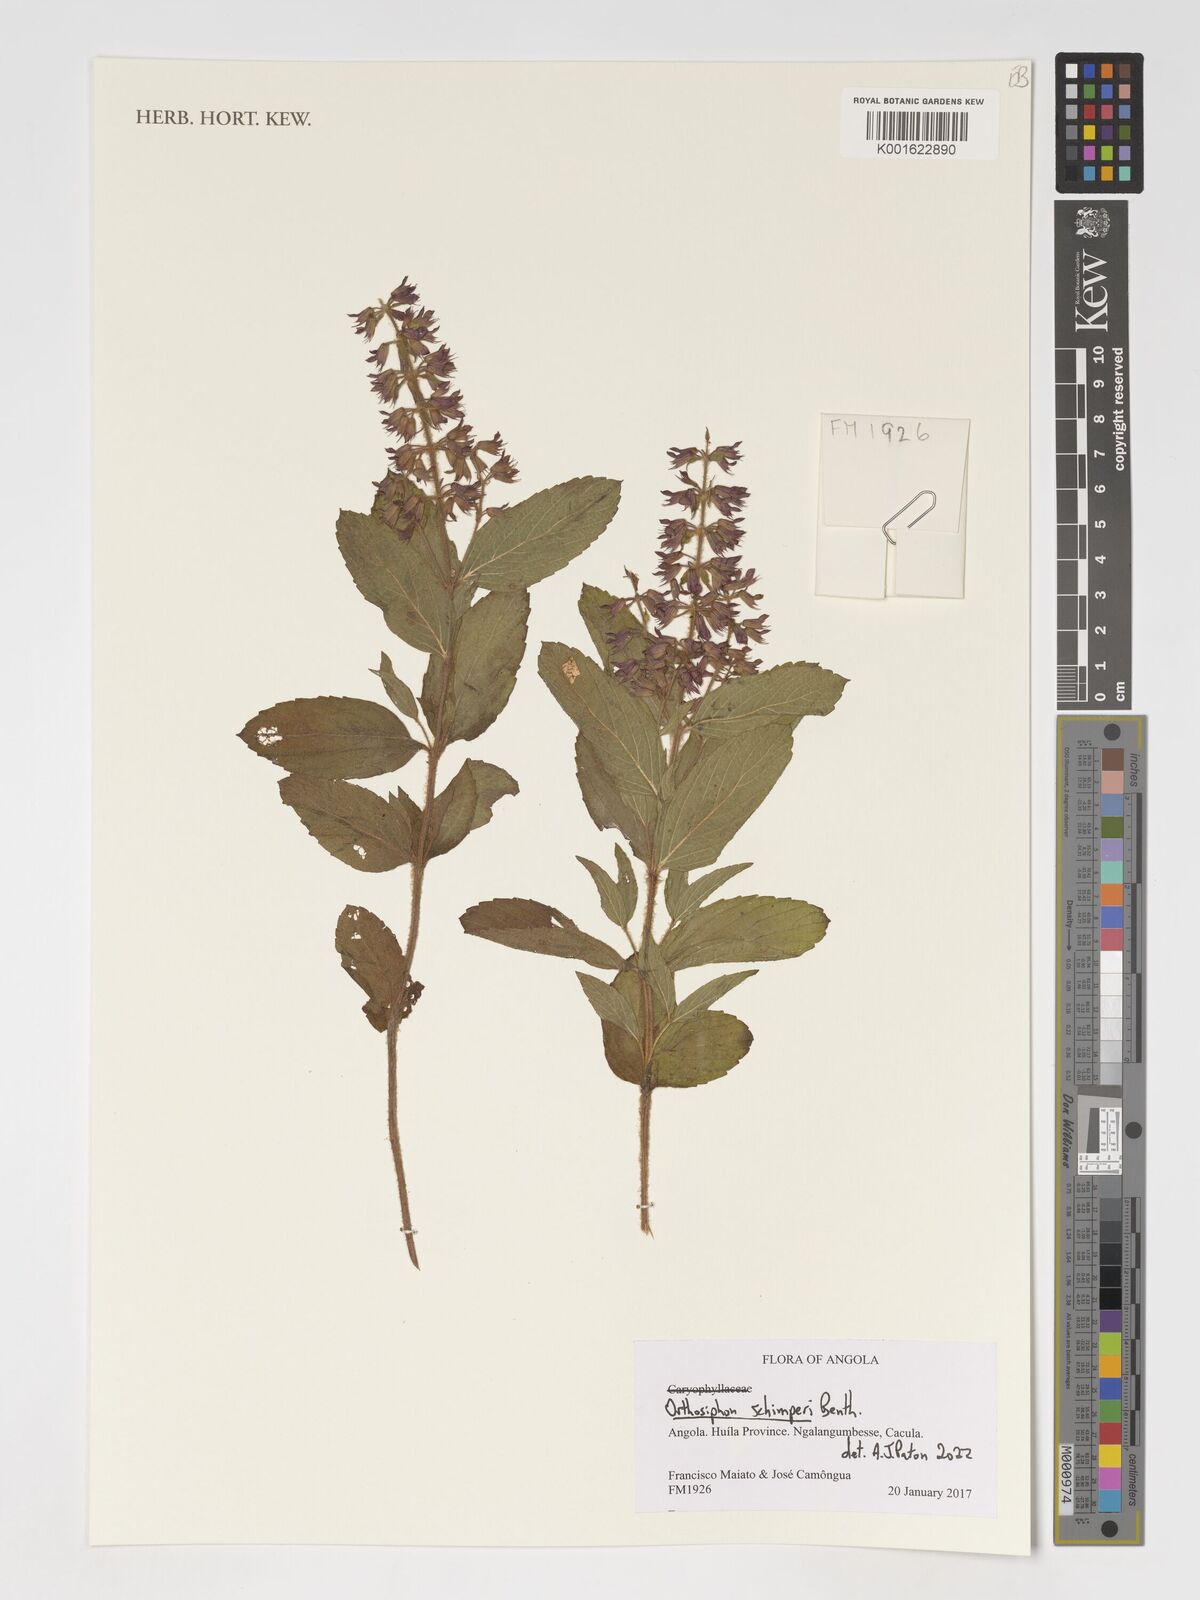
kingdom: Plantae
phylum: Tracheophyta
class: Magnoliopsida
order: Lamiales
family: Lamiaceae
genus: Orthosiphon
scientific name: Orthosiphon schimperi
